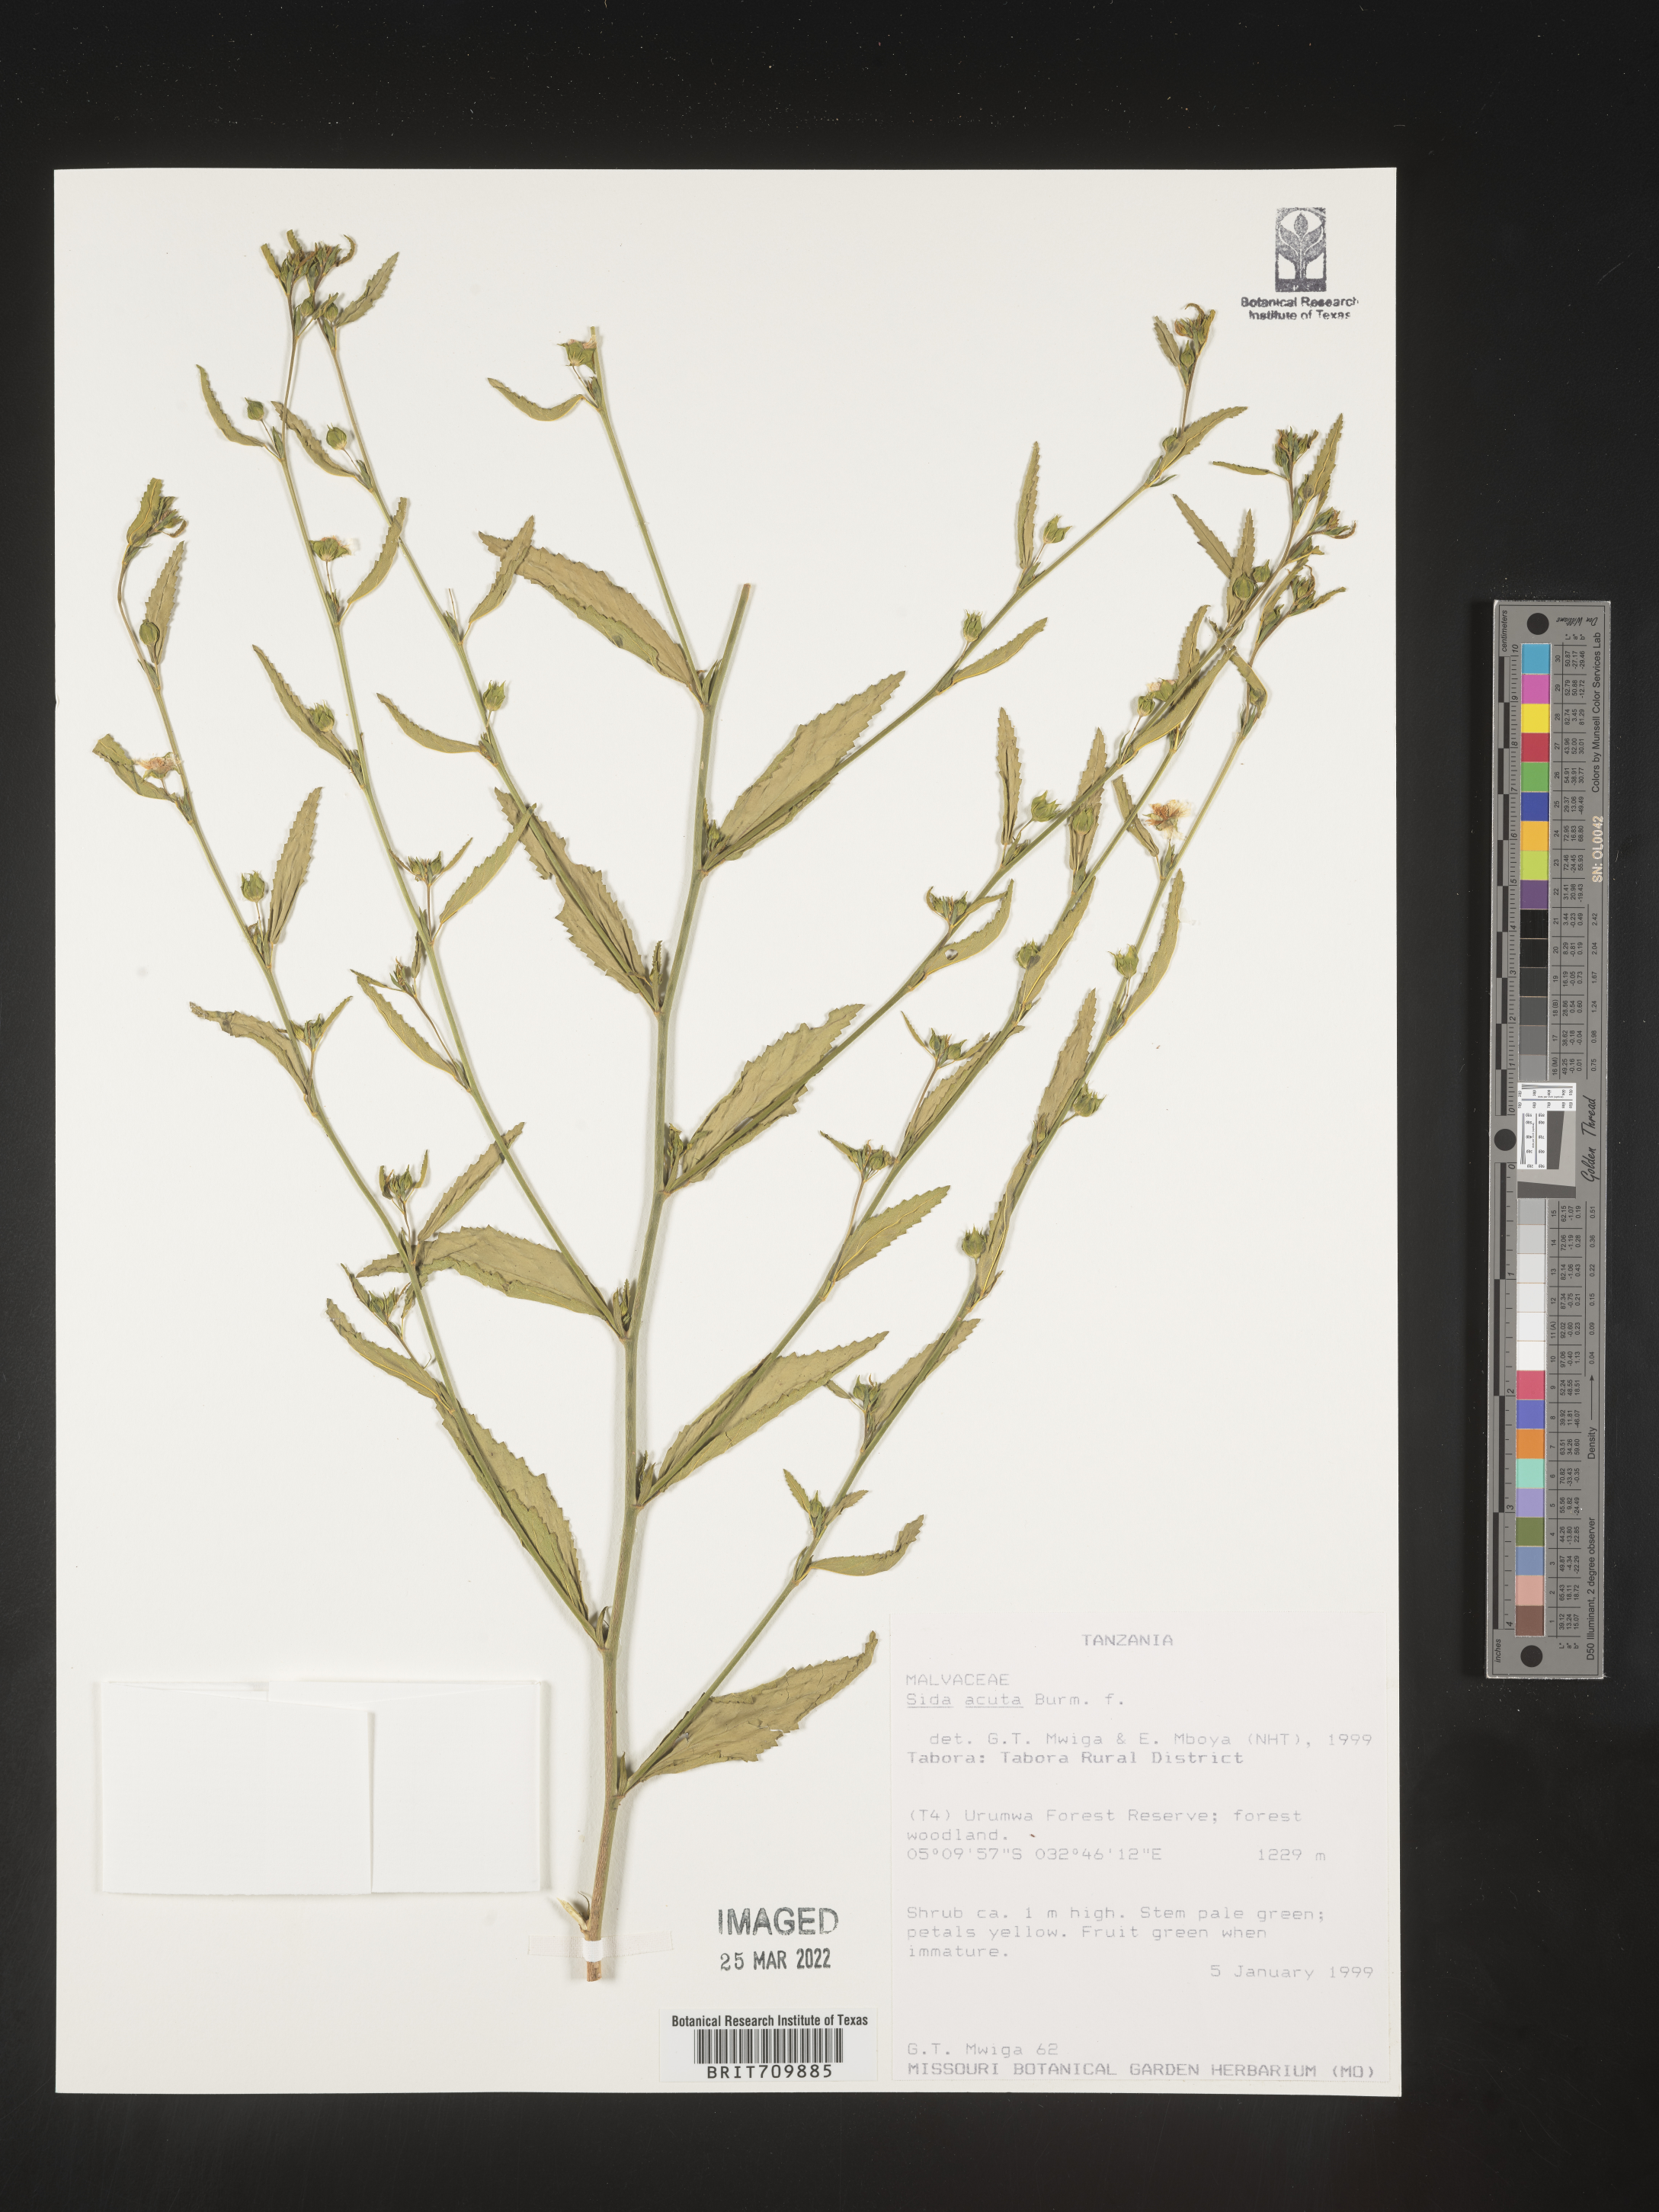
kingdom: Plantae
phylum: Tracheophyta
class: Magnoliopsida
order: Malvales
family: Malvaceae
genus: Sida
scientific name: Sida
